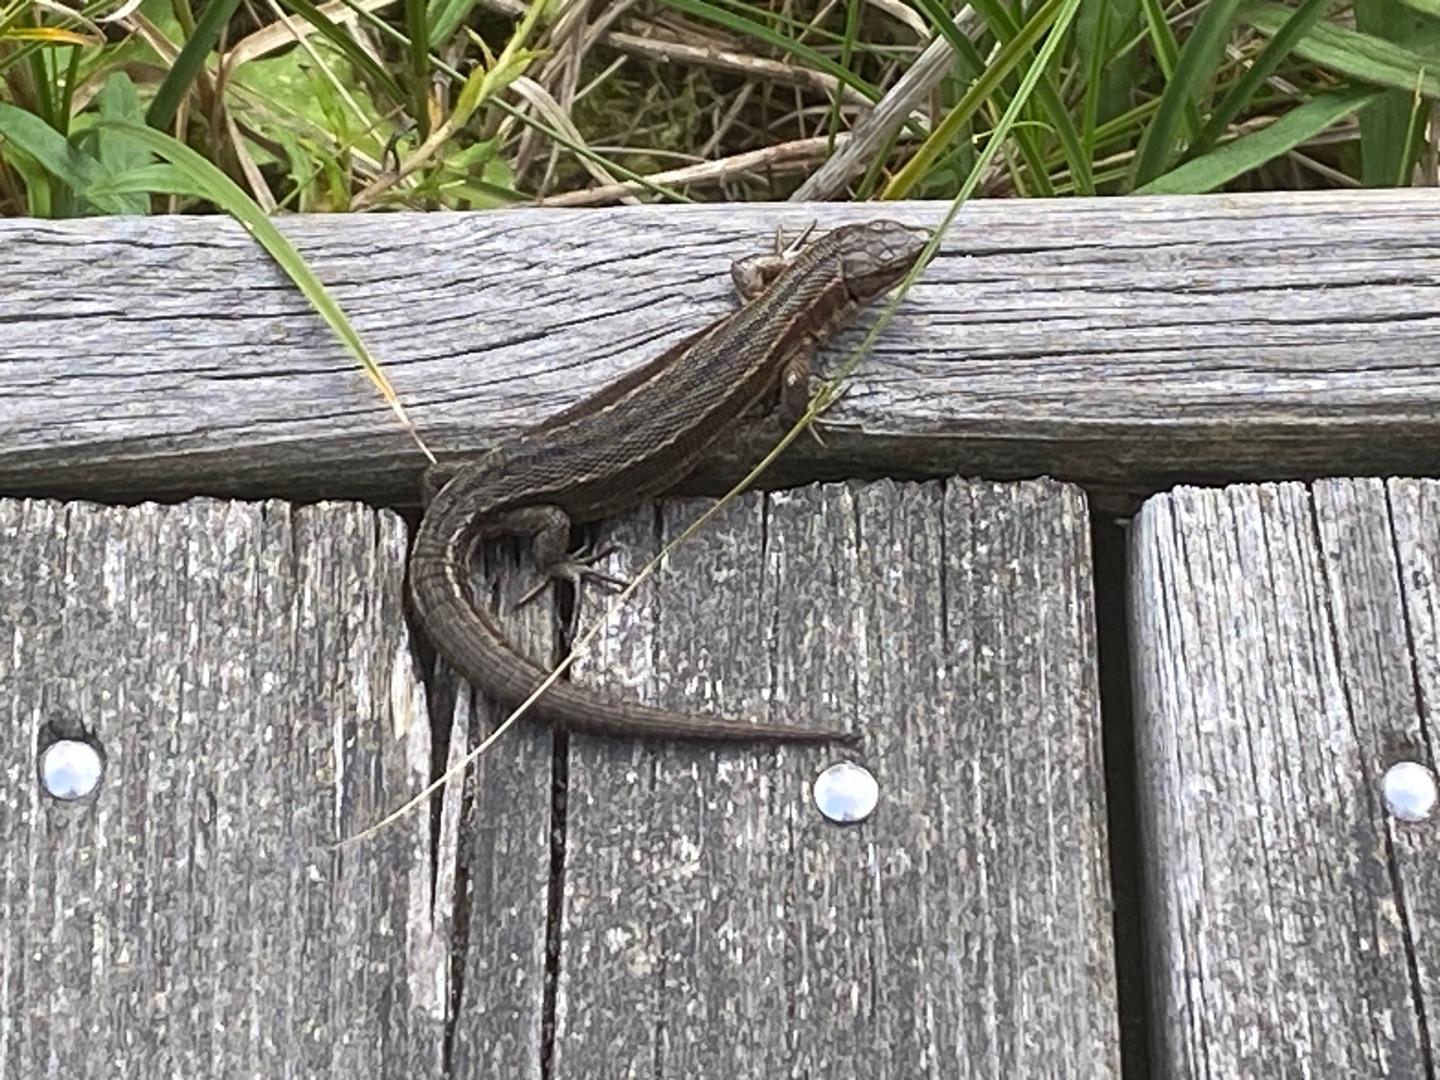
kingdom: Animalia
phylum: Chordata
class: Squamata
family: Lacertidae
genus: Zootoca
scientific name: Zootoca vivipara
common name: Skovfirben
